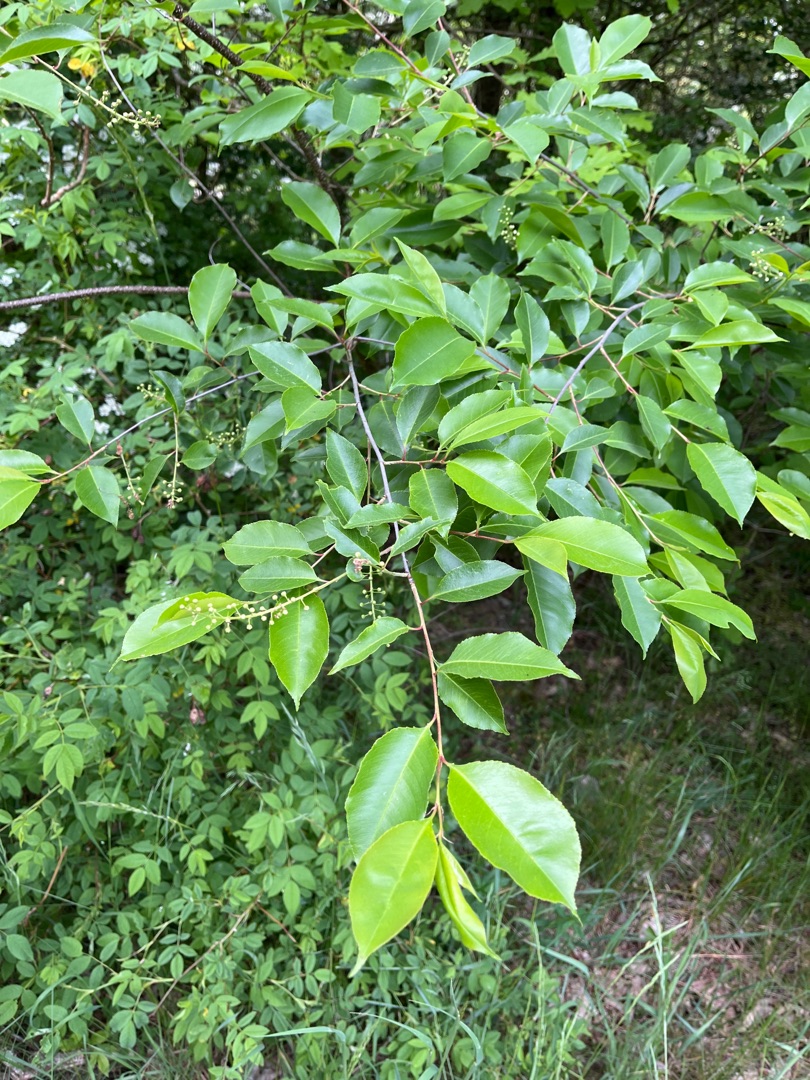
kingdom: Plantae
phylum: Tracheophyta
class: Magnoliopsida
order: Rosales
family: Rosaceae
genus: Prunus
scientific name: Prunus serotina
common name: Glansbladet hæg
